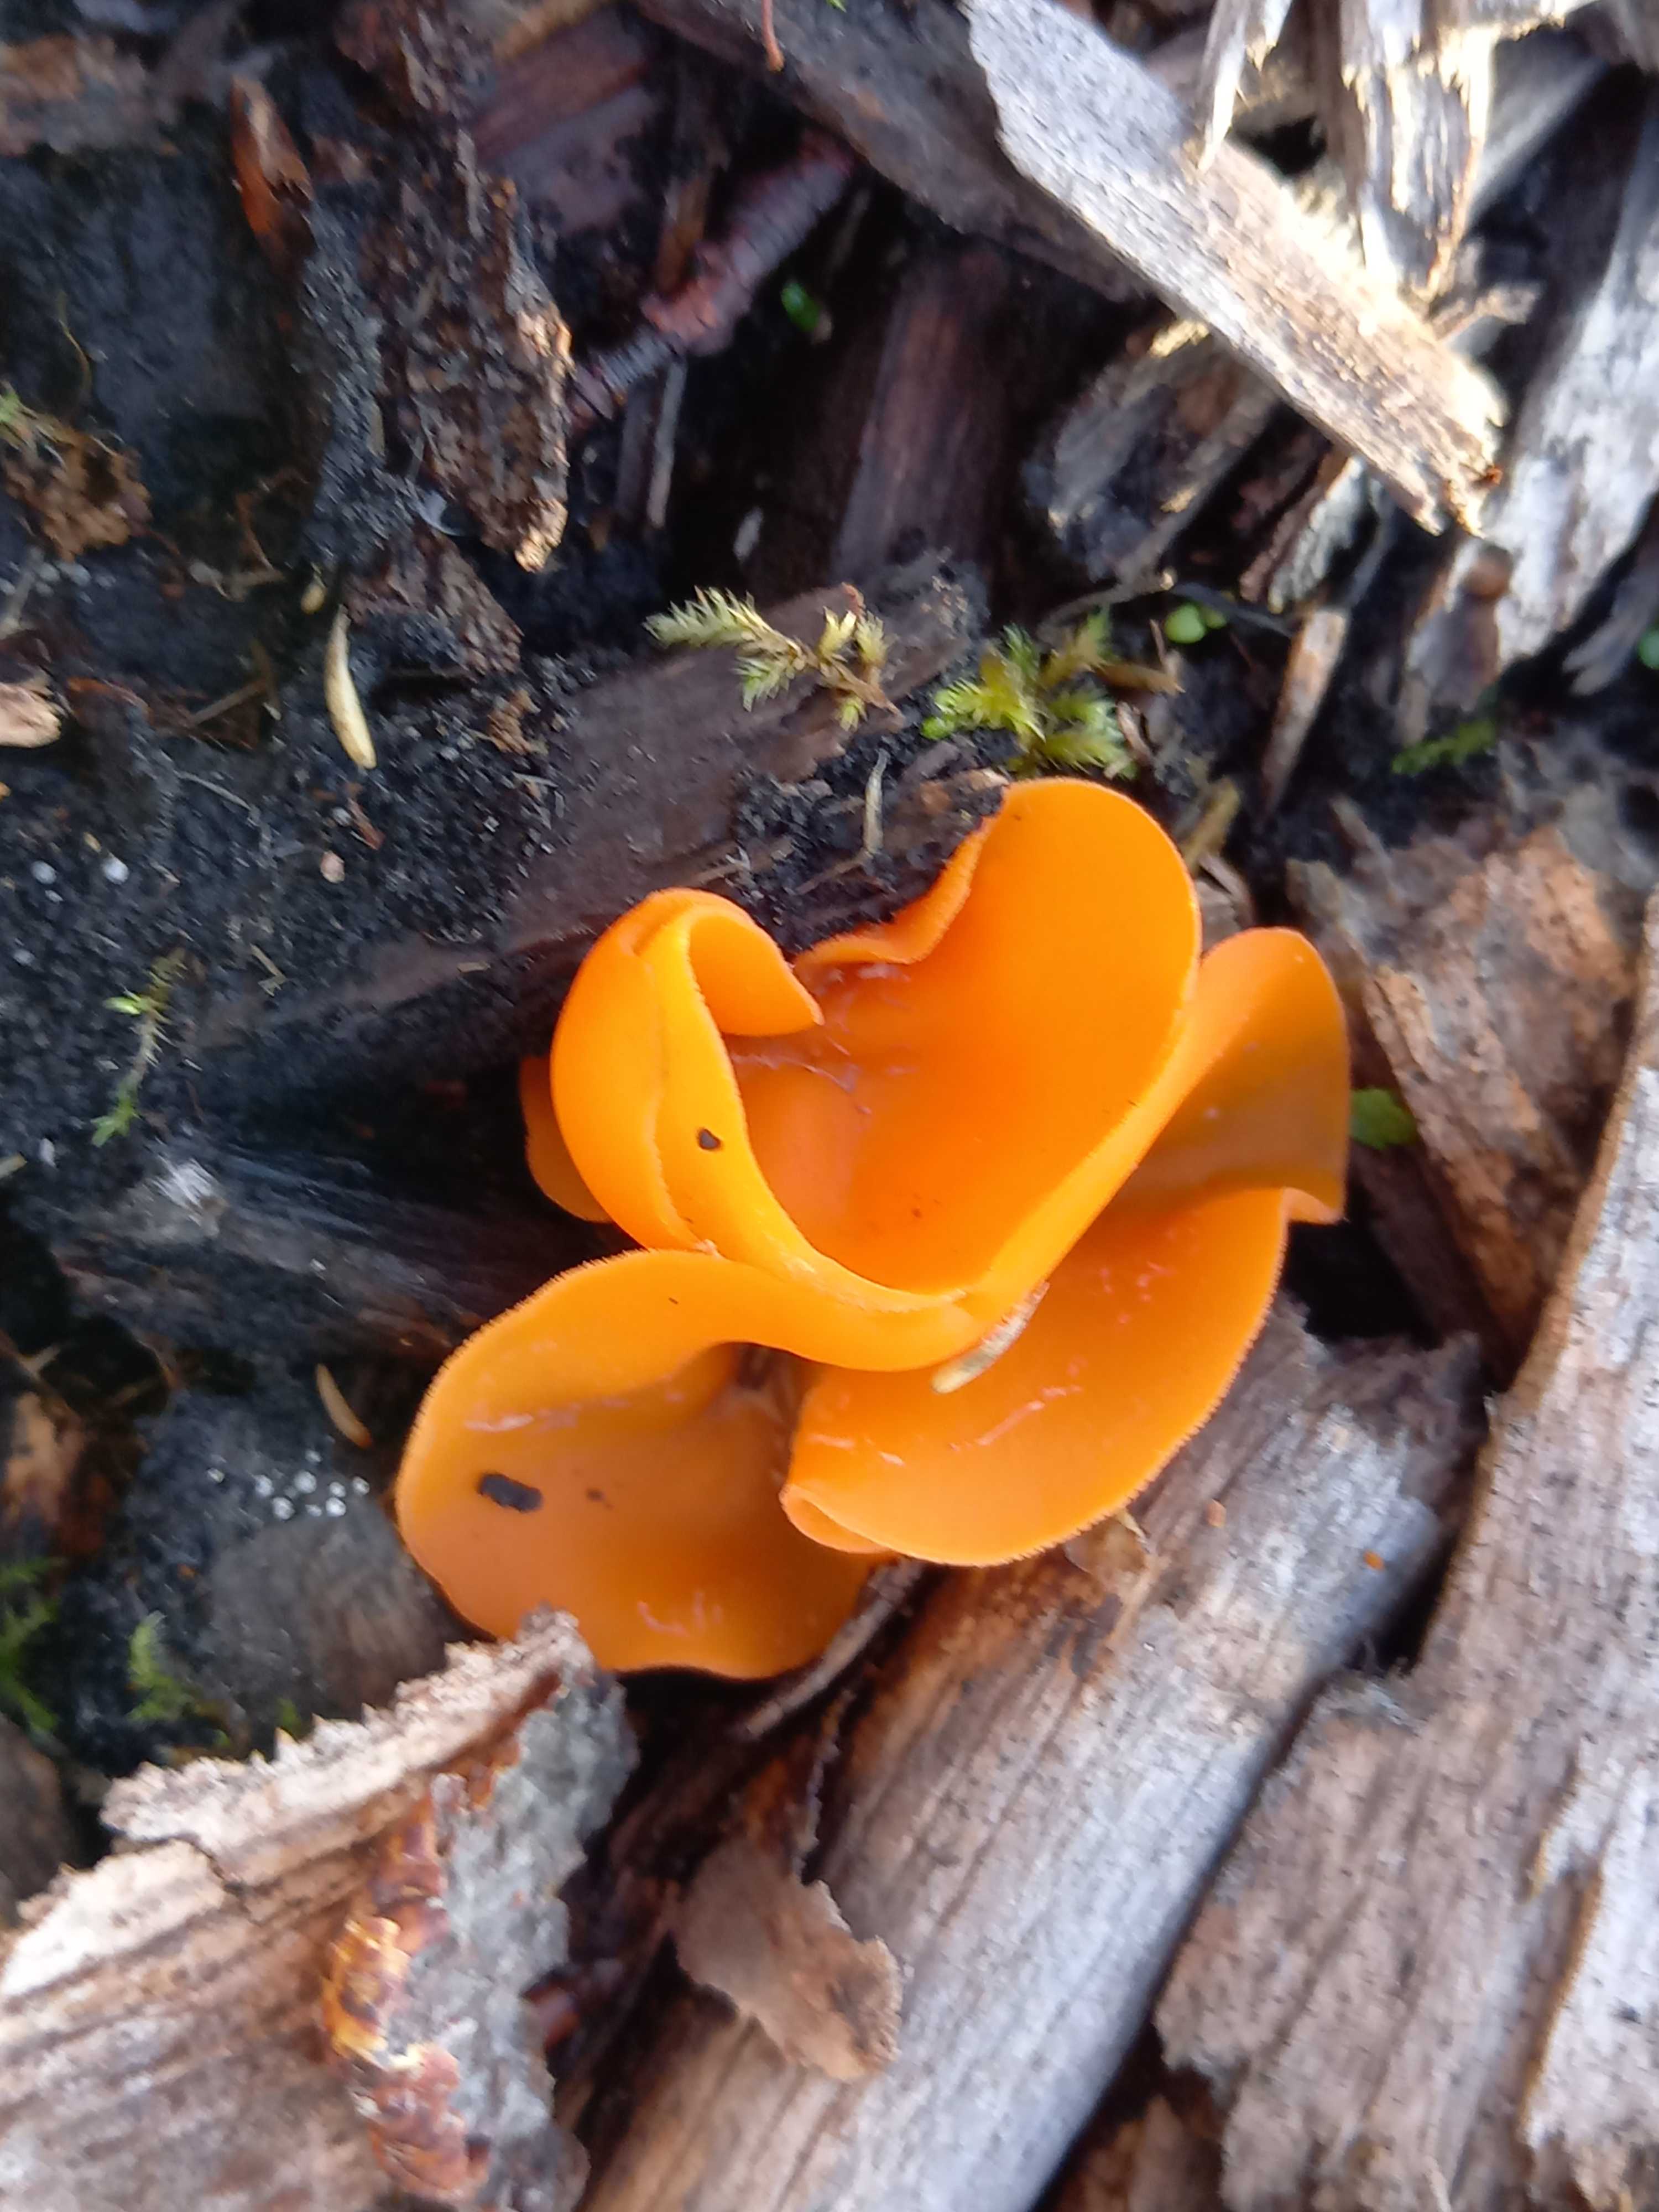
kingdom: Fungi
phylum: Ascomycota
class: Pezizomycetes
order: Pezizales
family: Pyronemataceae
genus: Aleuria
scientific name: Aleuria aurantia
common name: almindelig orangebæger
